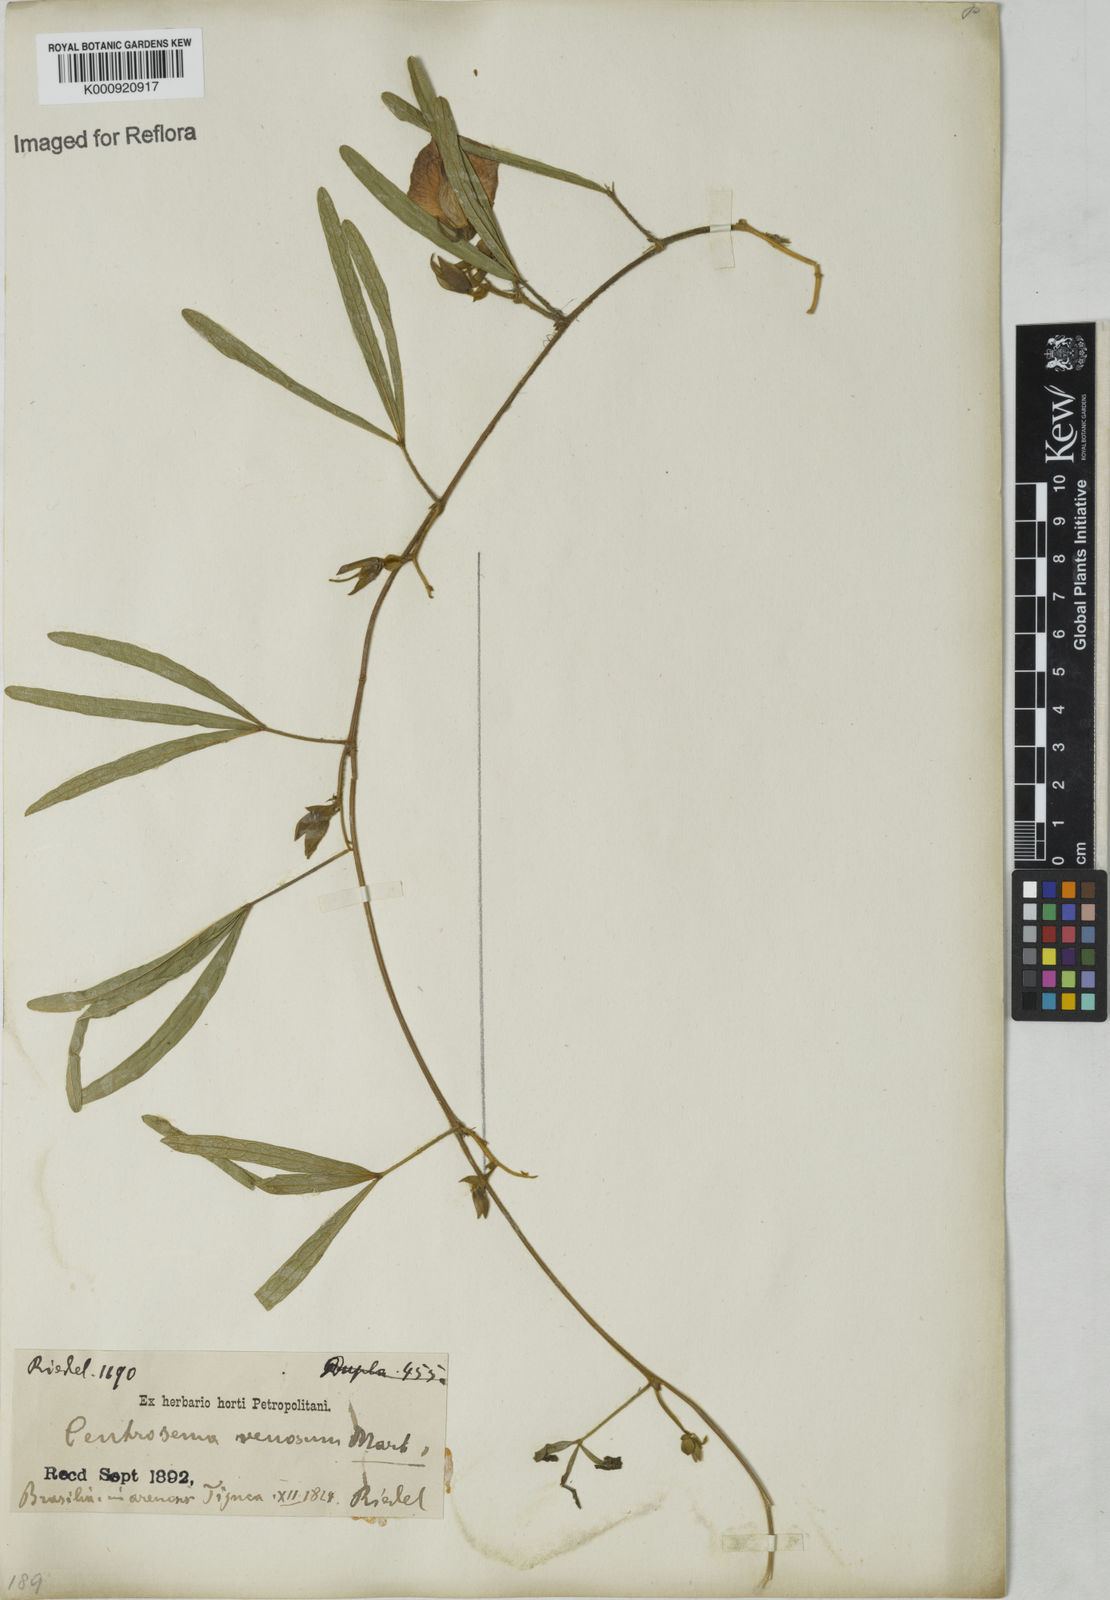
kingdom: Plantae
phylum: Tracheophyta
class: Magnoliopsida
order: Fabales
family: Fabaceae
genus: Centrosema
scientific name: Centrosema
